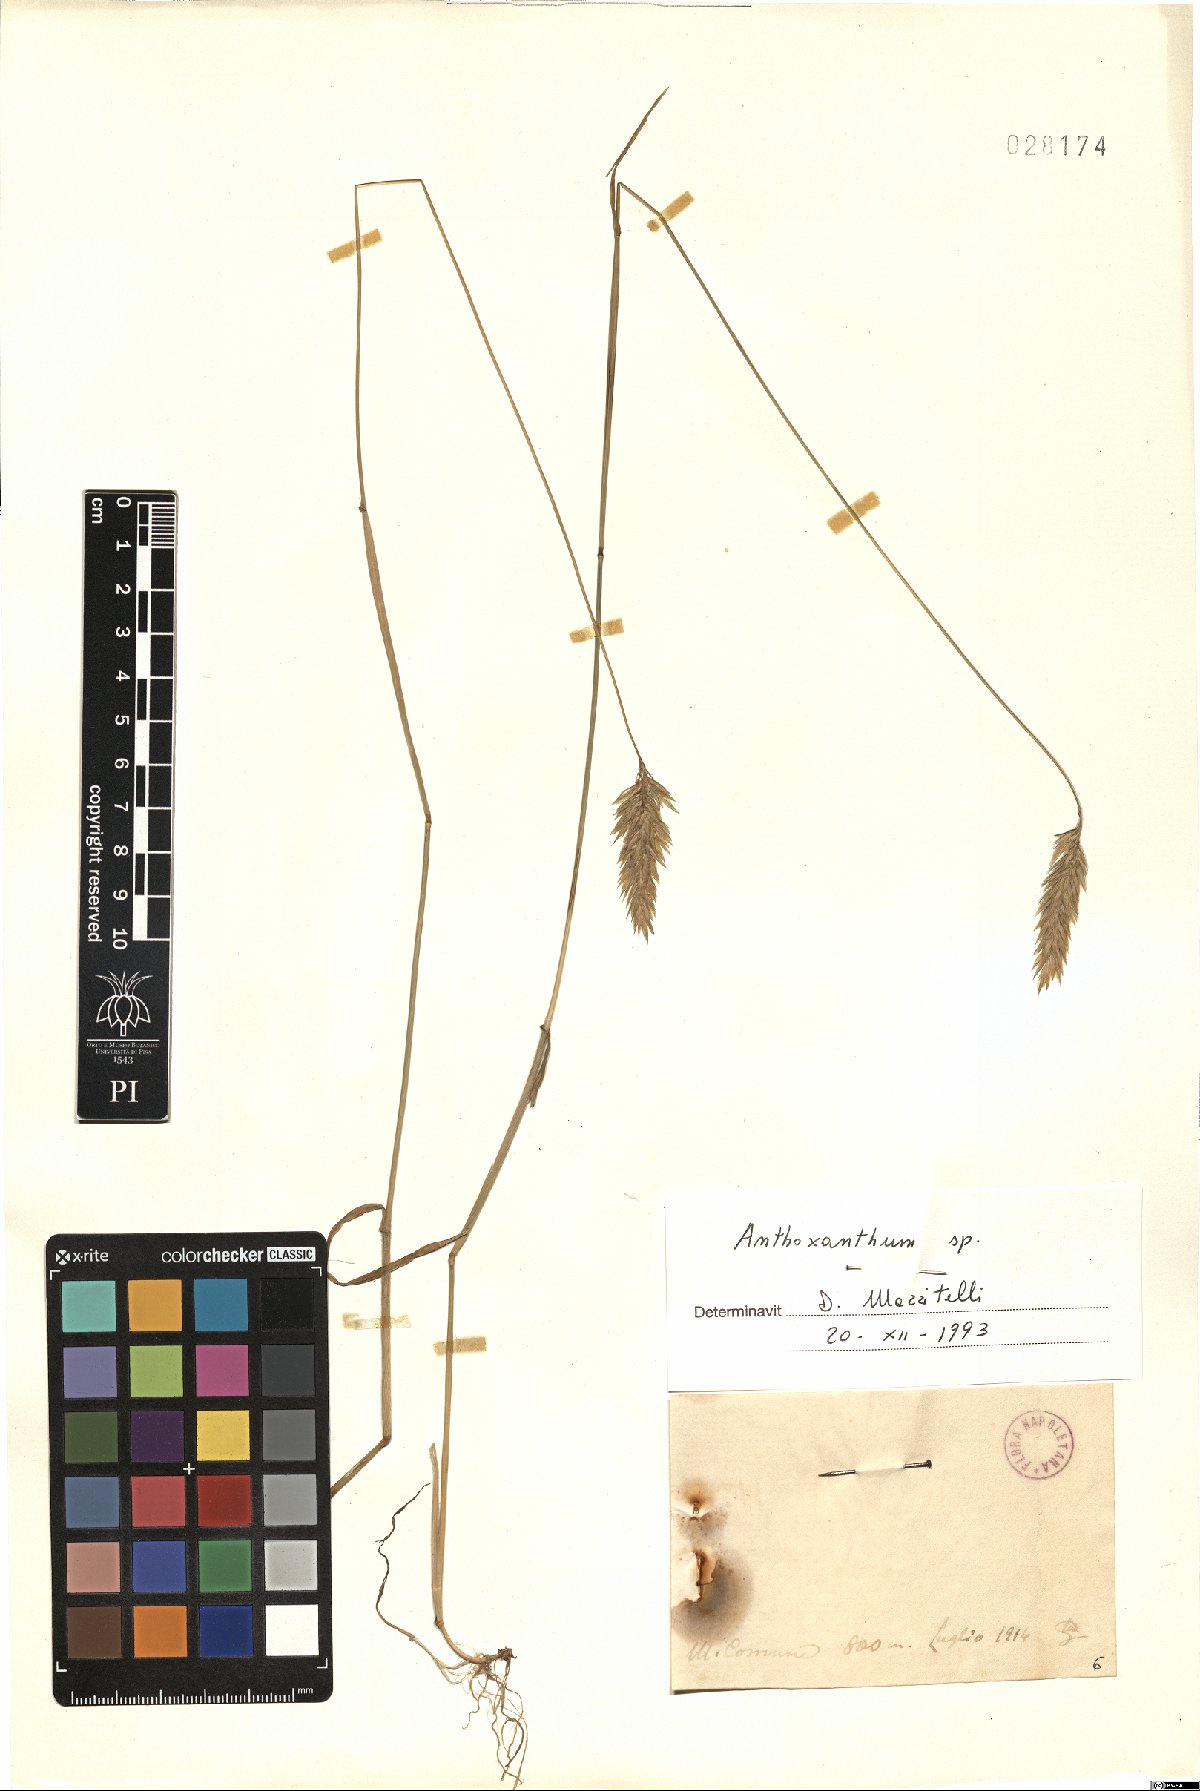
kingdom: Plantae
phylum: Tracheophyta
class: Liliopsida
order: Poales
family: Poaceae
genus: Anthoxanthum
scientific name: Anthoxanthum
